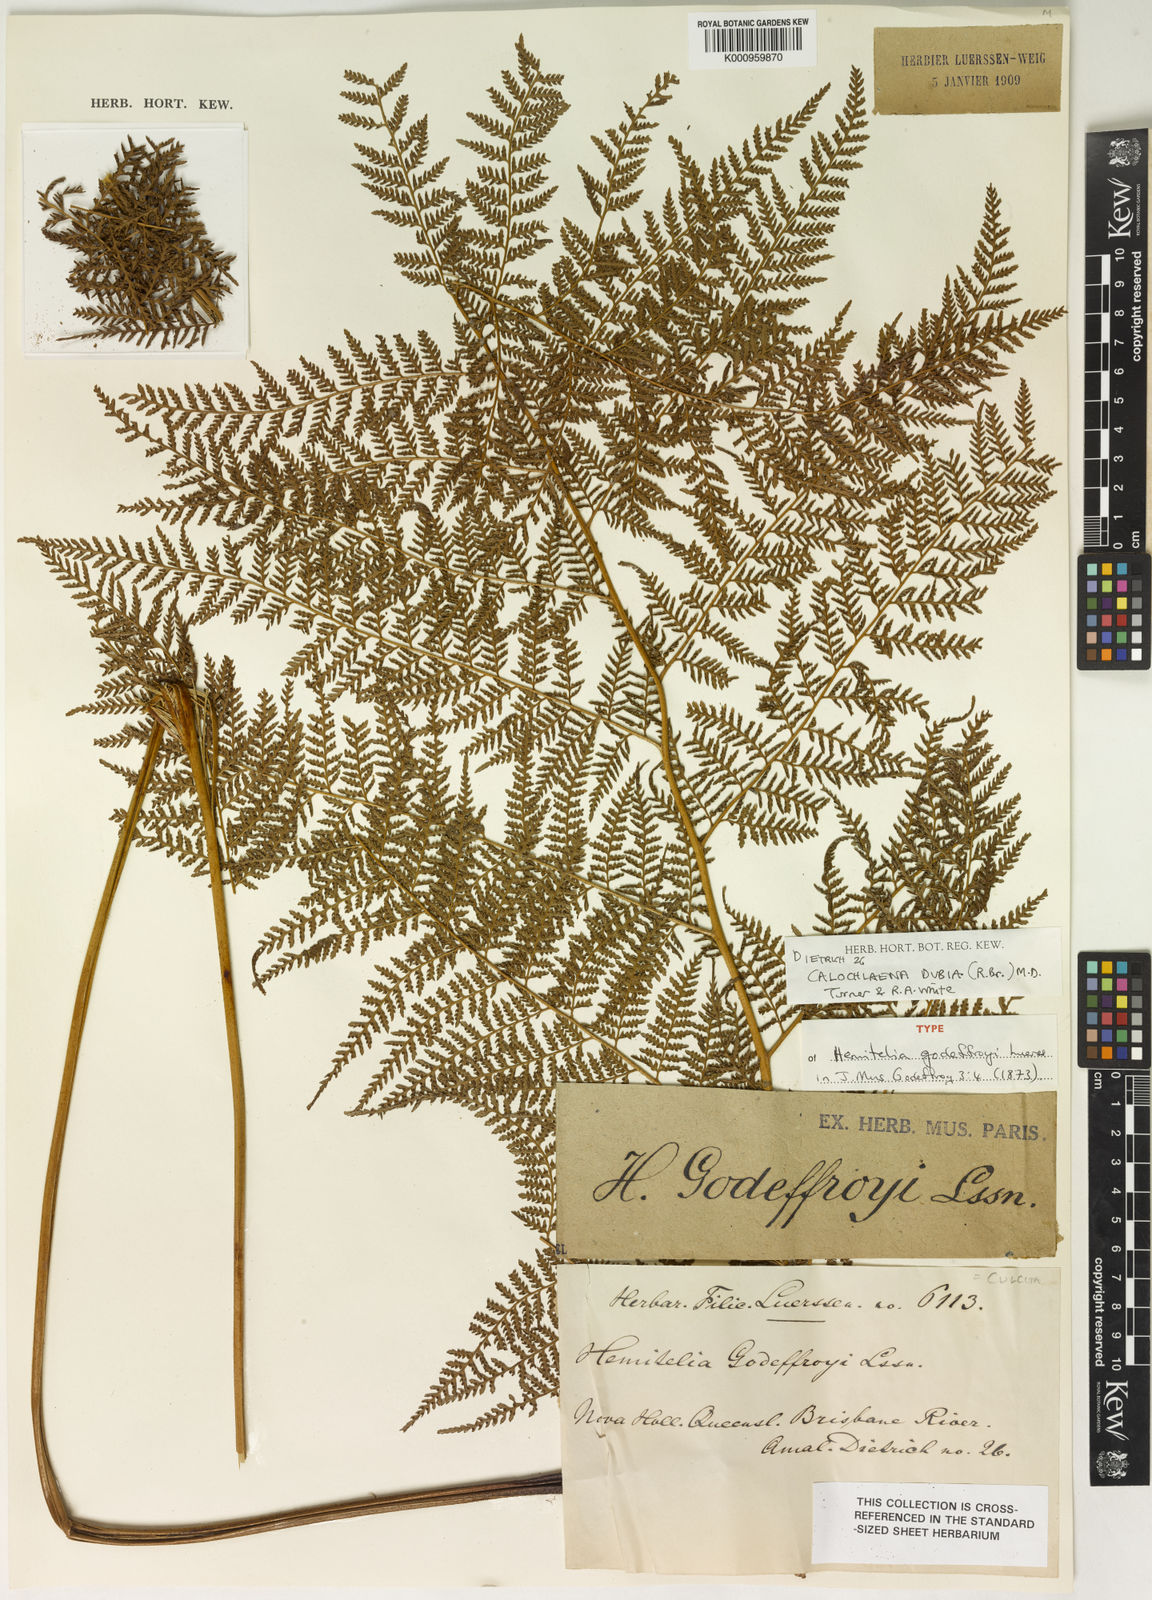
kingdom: Plantae
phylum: Tracheophyta
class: Polypodiopsida
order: Cyatheales
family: Dicksoniaceae
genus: Calochlaena
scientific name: Calochlaena dubia
